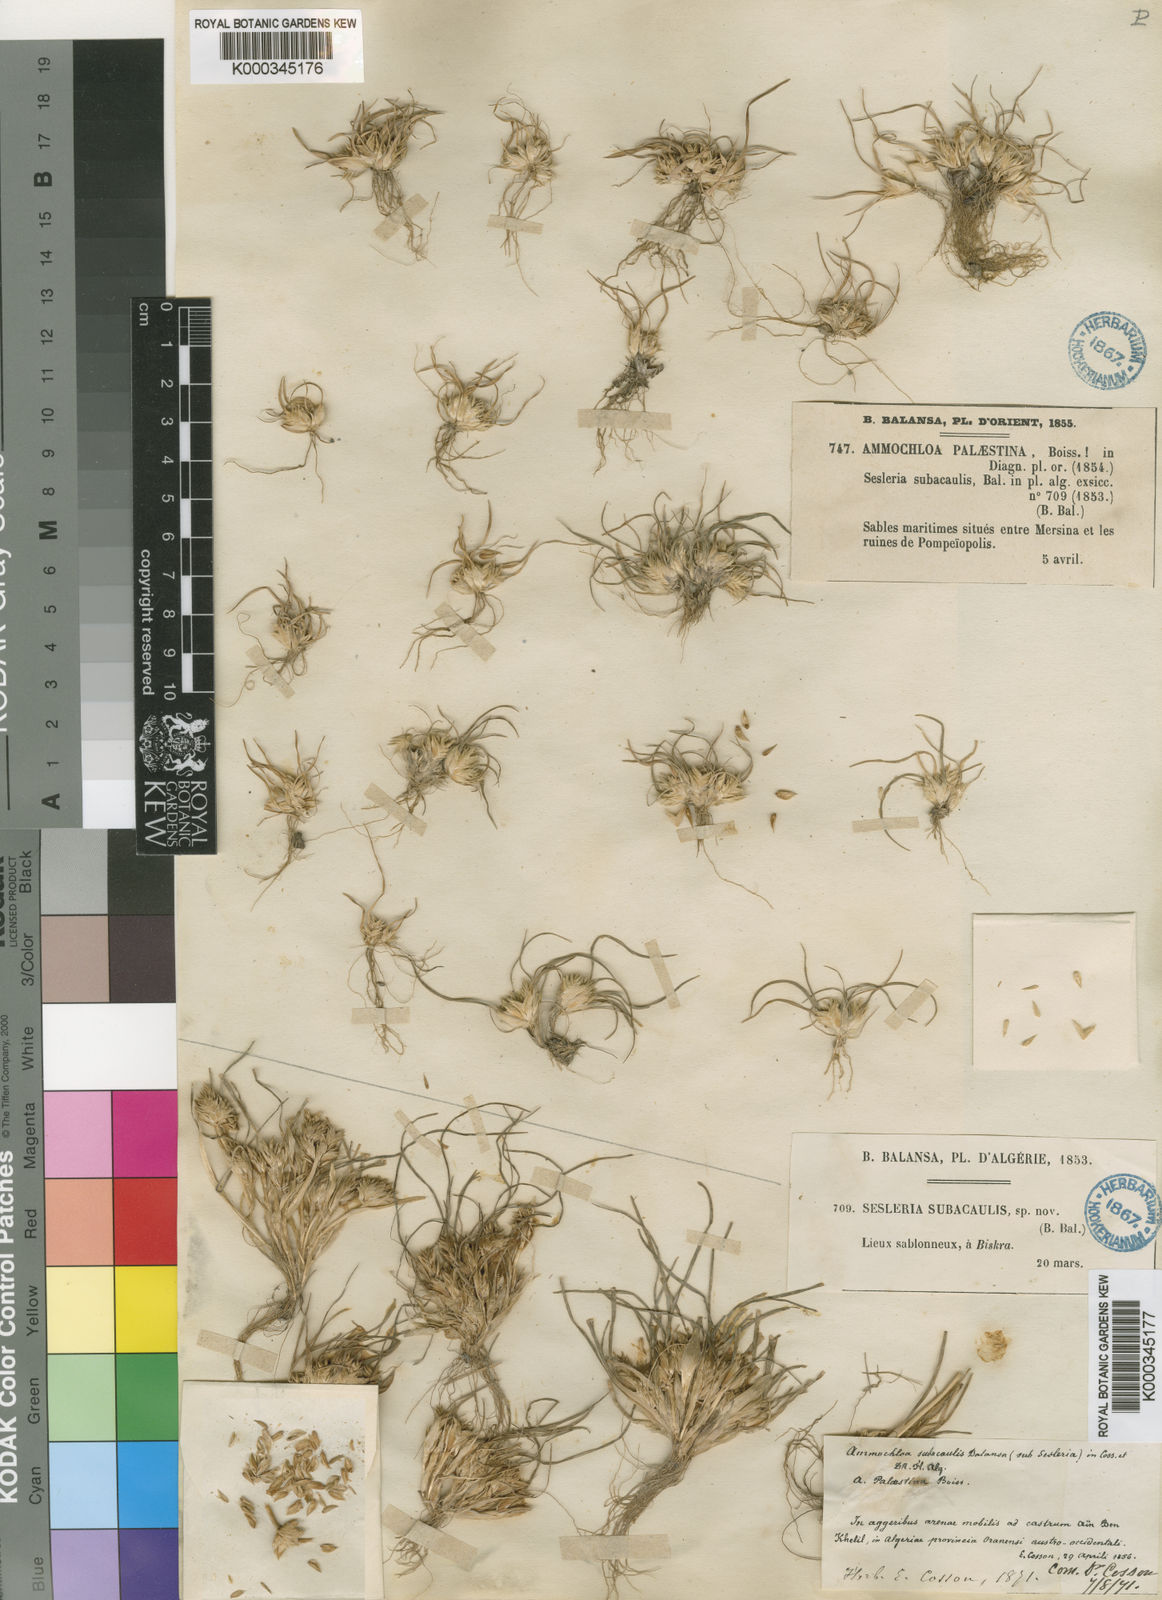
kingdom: Plantae
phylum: Tracheophyta
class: Liliopsida
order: Poales
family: Poaceae
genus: Ammochloa
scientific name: Ammochloa palaestina
